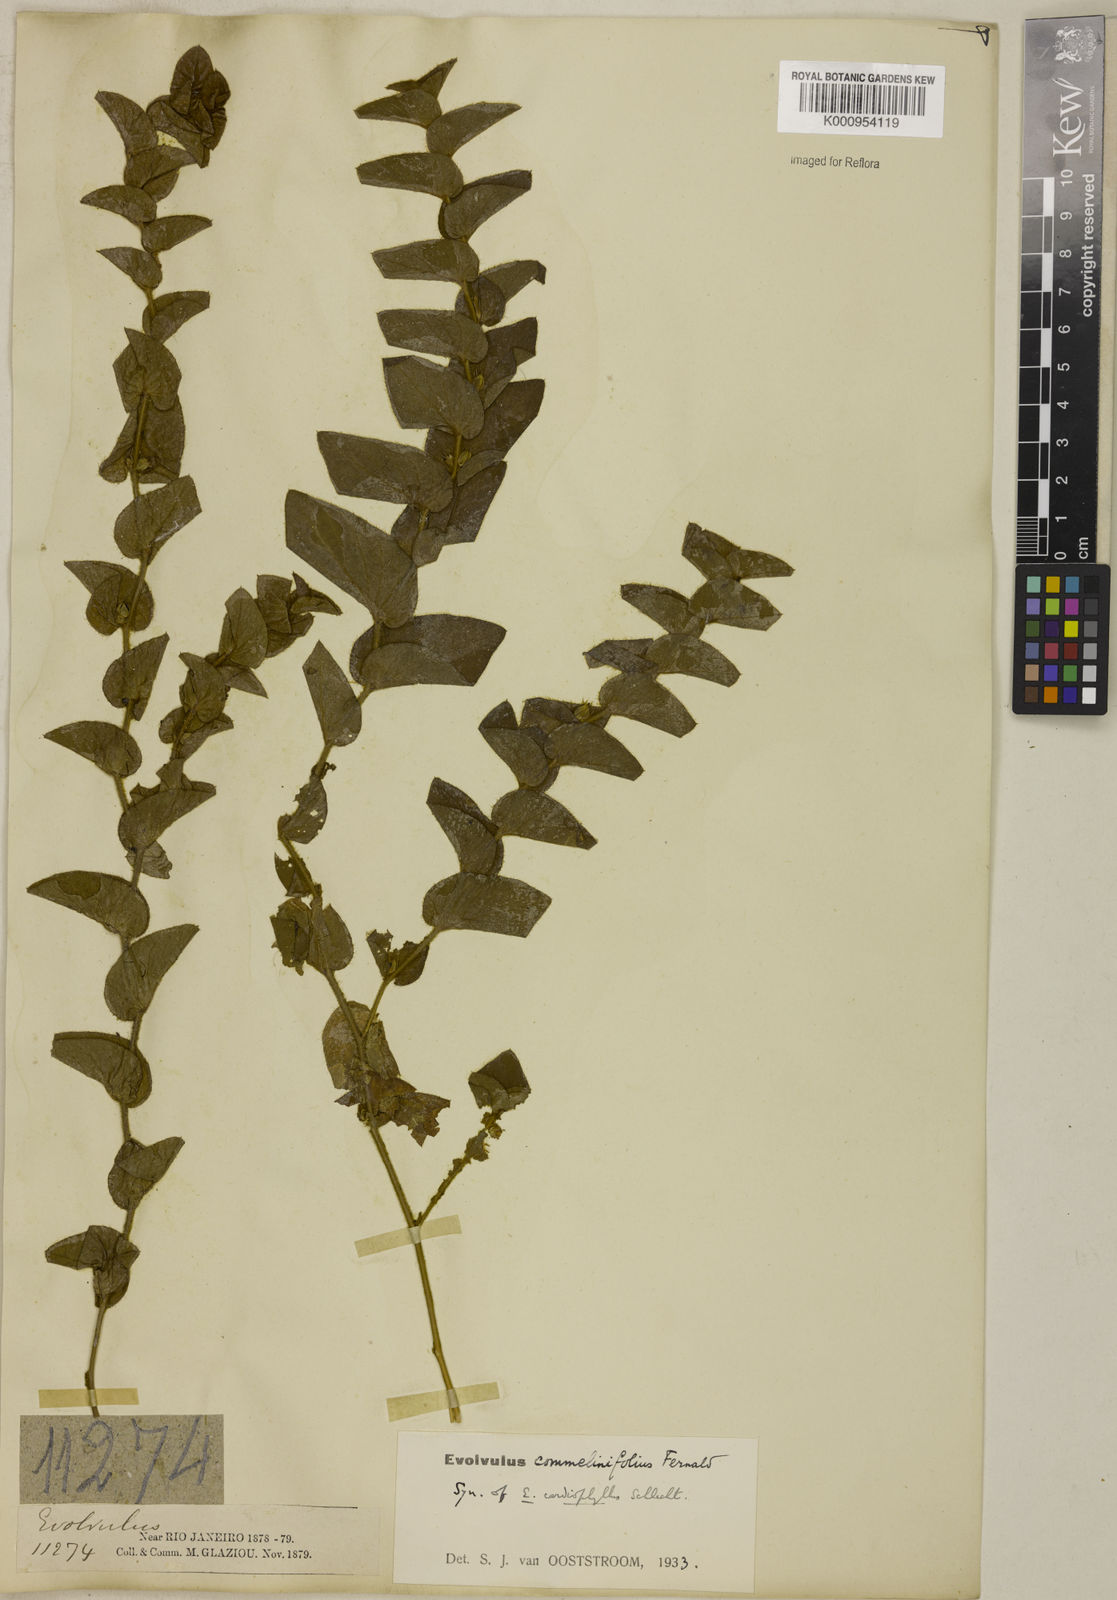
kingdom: Plantae
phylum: Tracheophyta
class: Magnoliopsida
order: Solanales
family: Convolvulaceae
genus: Evolvulus
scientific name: Evolvulus cardiophyllus
